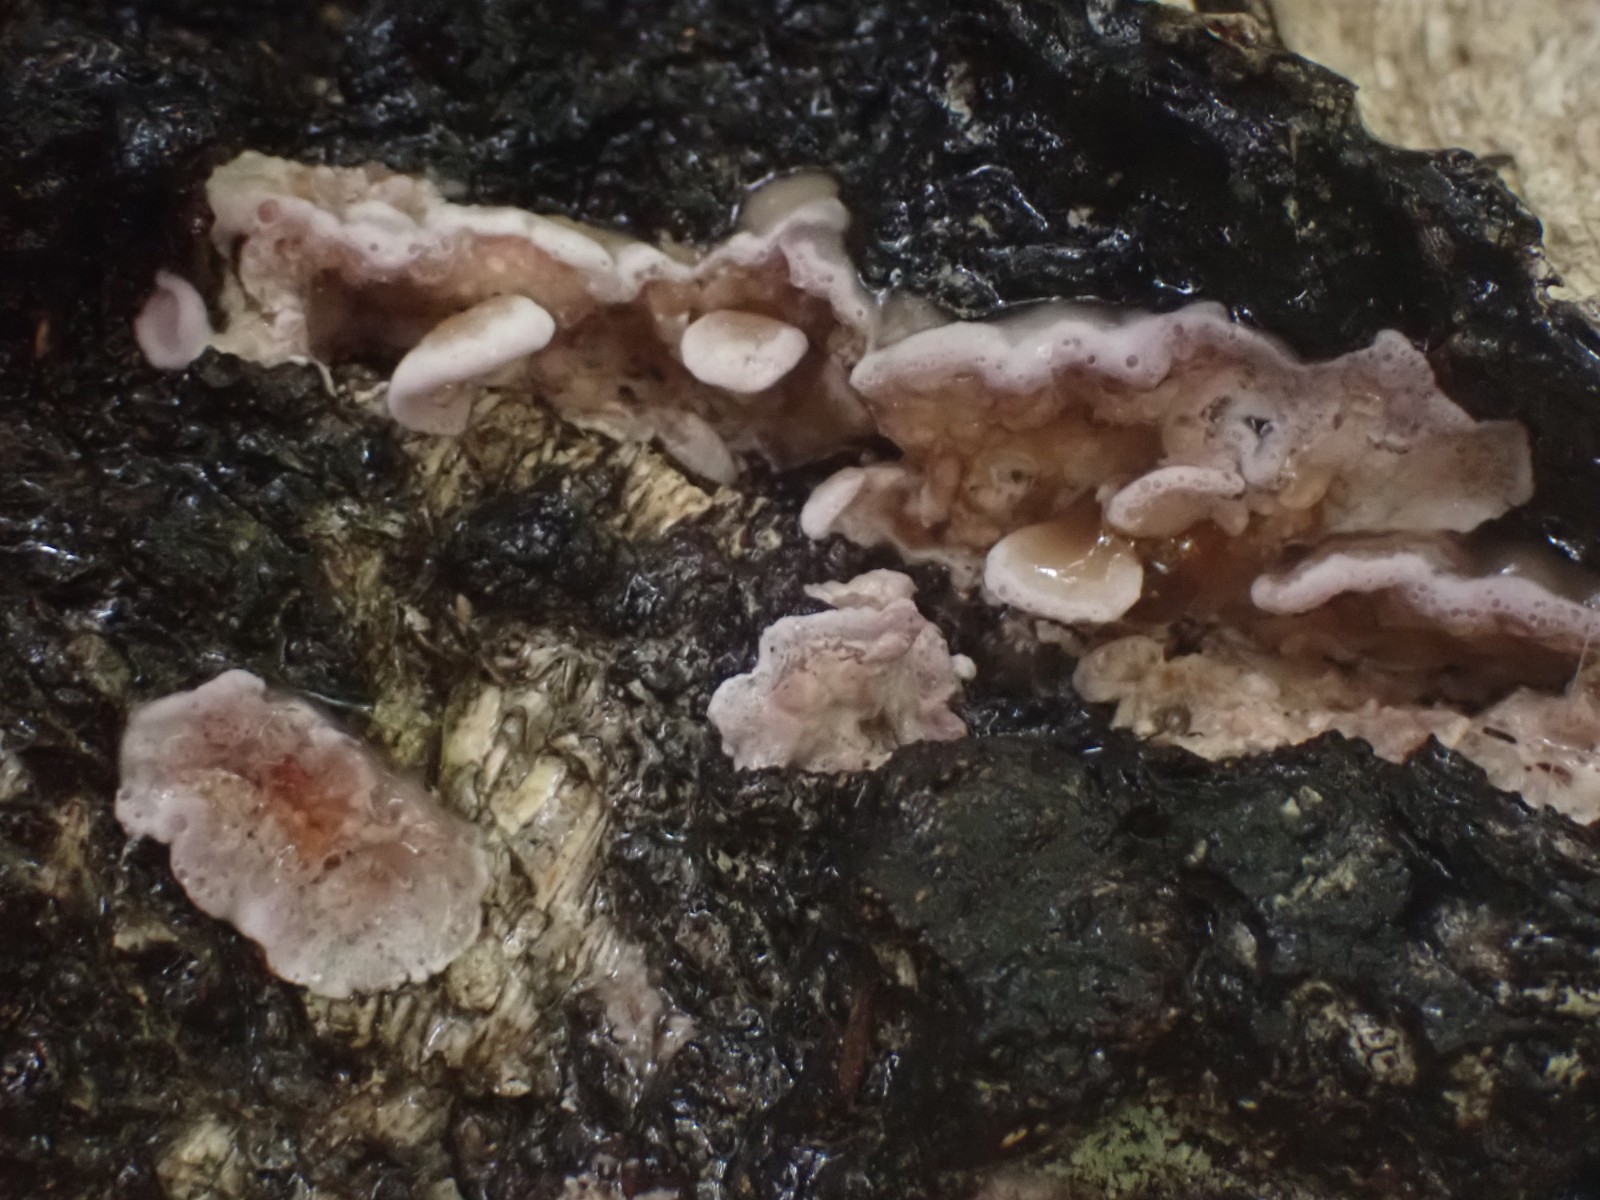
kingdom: Fungi
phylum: Basidiomycota
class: Agaricomycetes
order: Agaricales
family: Cyphellaceae
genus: Chondrostereum
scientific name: Chondrostereum purpureum
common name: purpurlædersvamp
